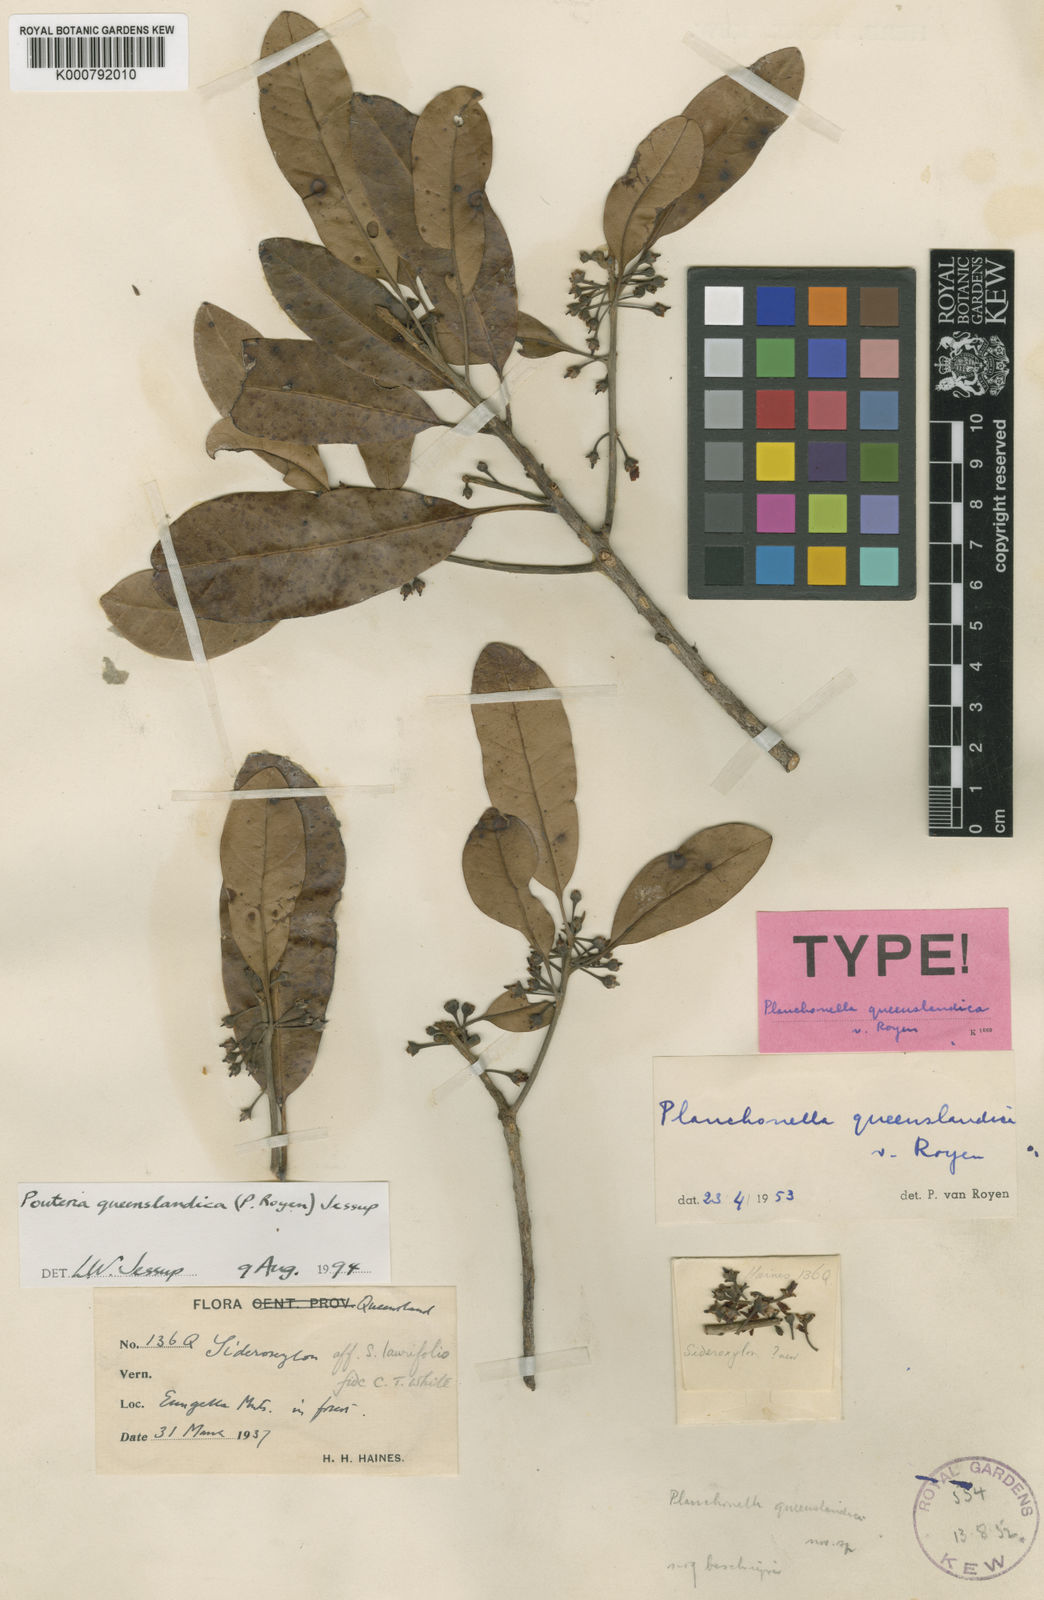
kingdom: Plantae
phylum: Tracheophyta
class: Magnoliopsida
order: Ericales
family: Sapotaceae
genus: Pleioluma
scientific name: Pleioluma queenslandica
